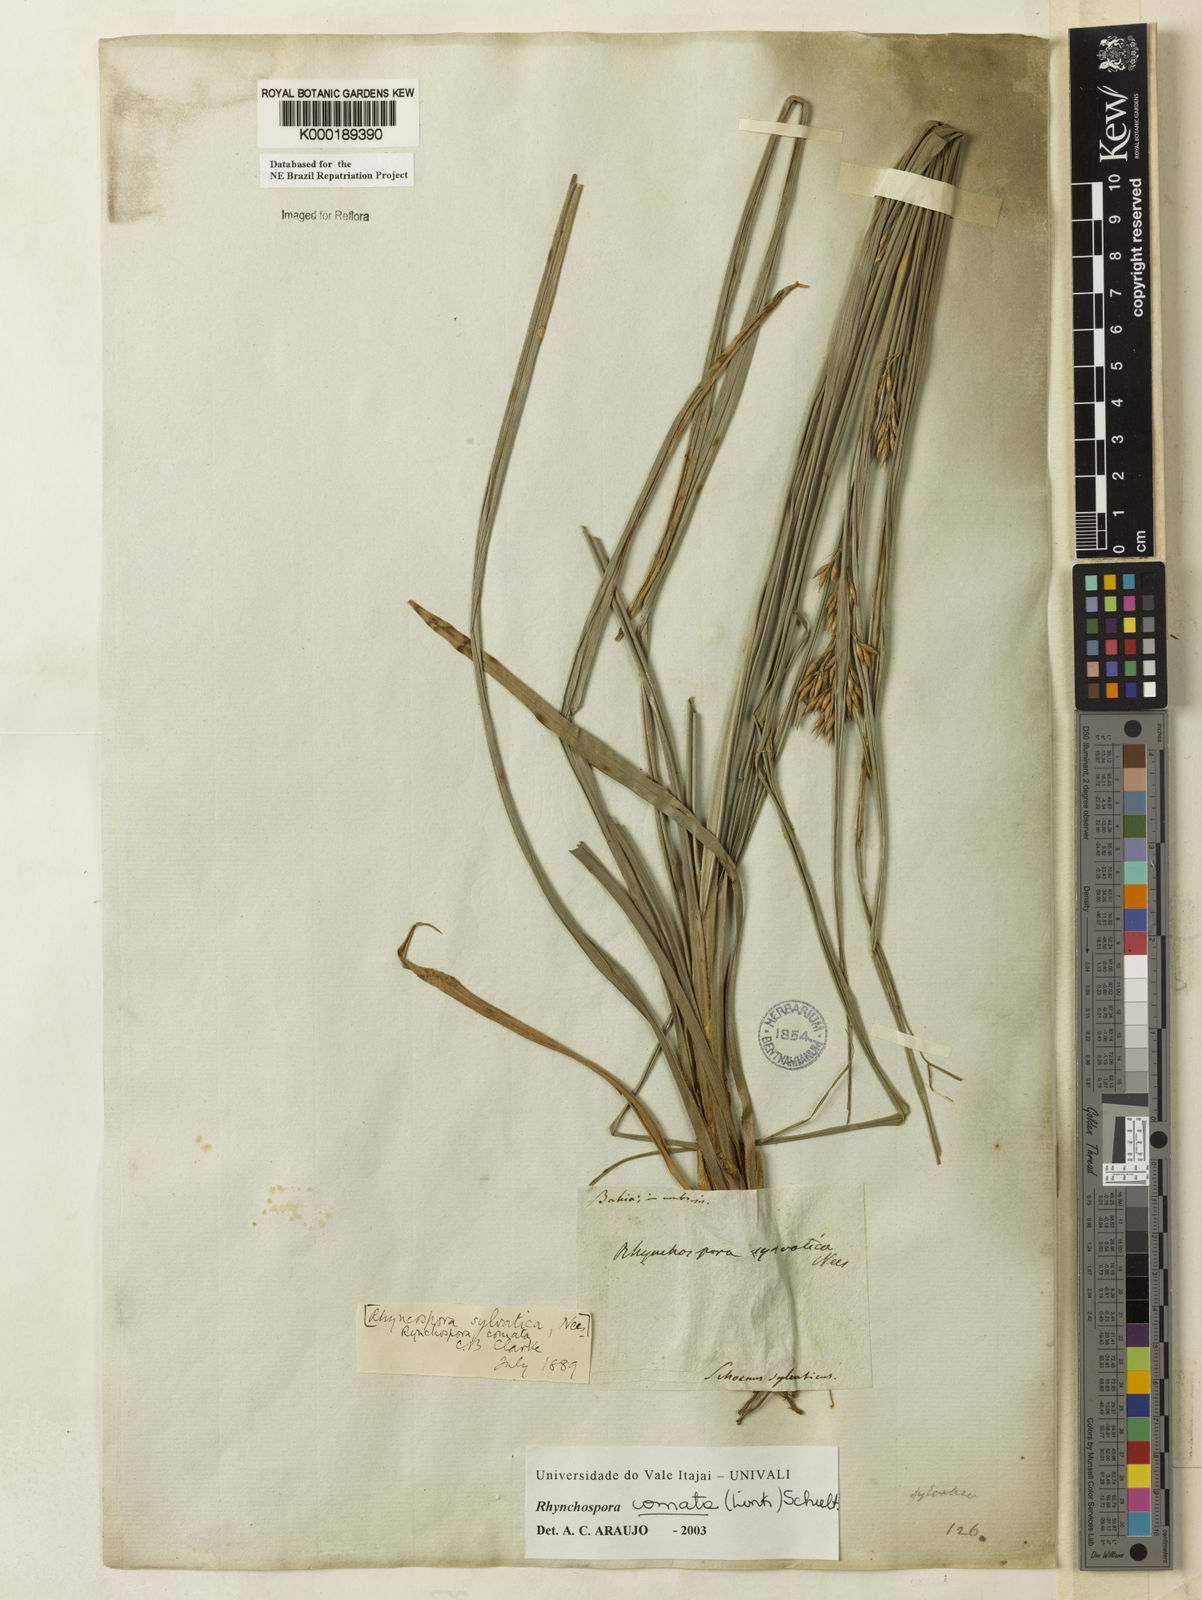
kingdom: Plantae
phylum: Tracheophyta
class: Liliopsida
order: Poales
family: Cyperaceae
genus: Rhynchospora
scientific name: Rhynchospora comata
